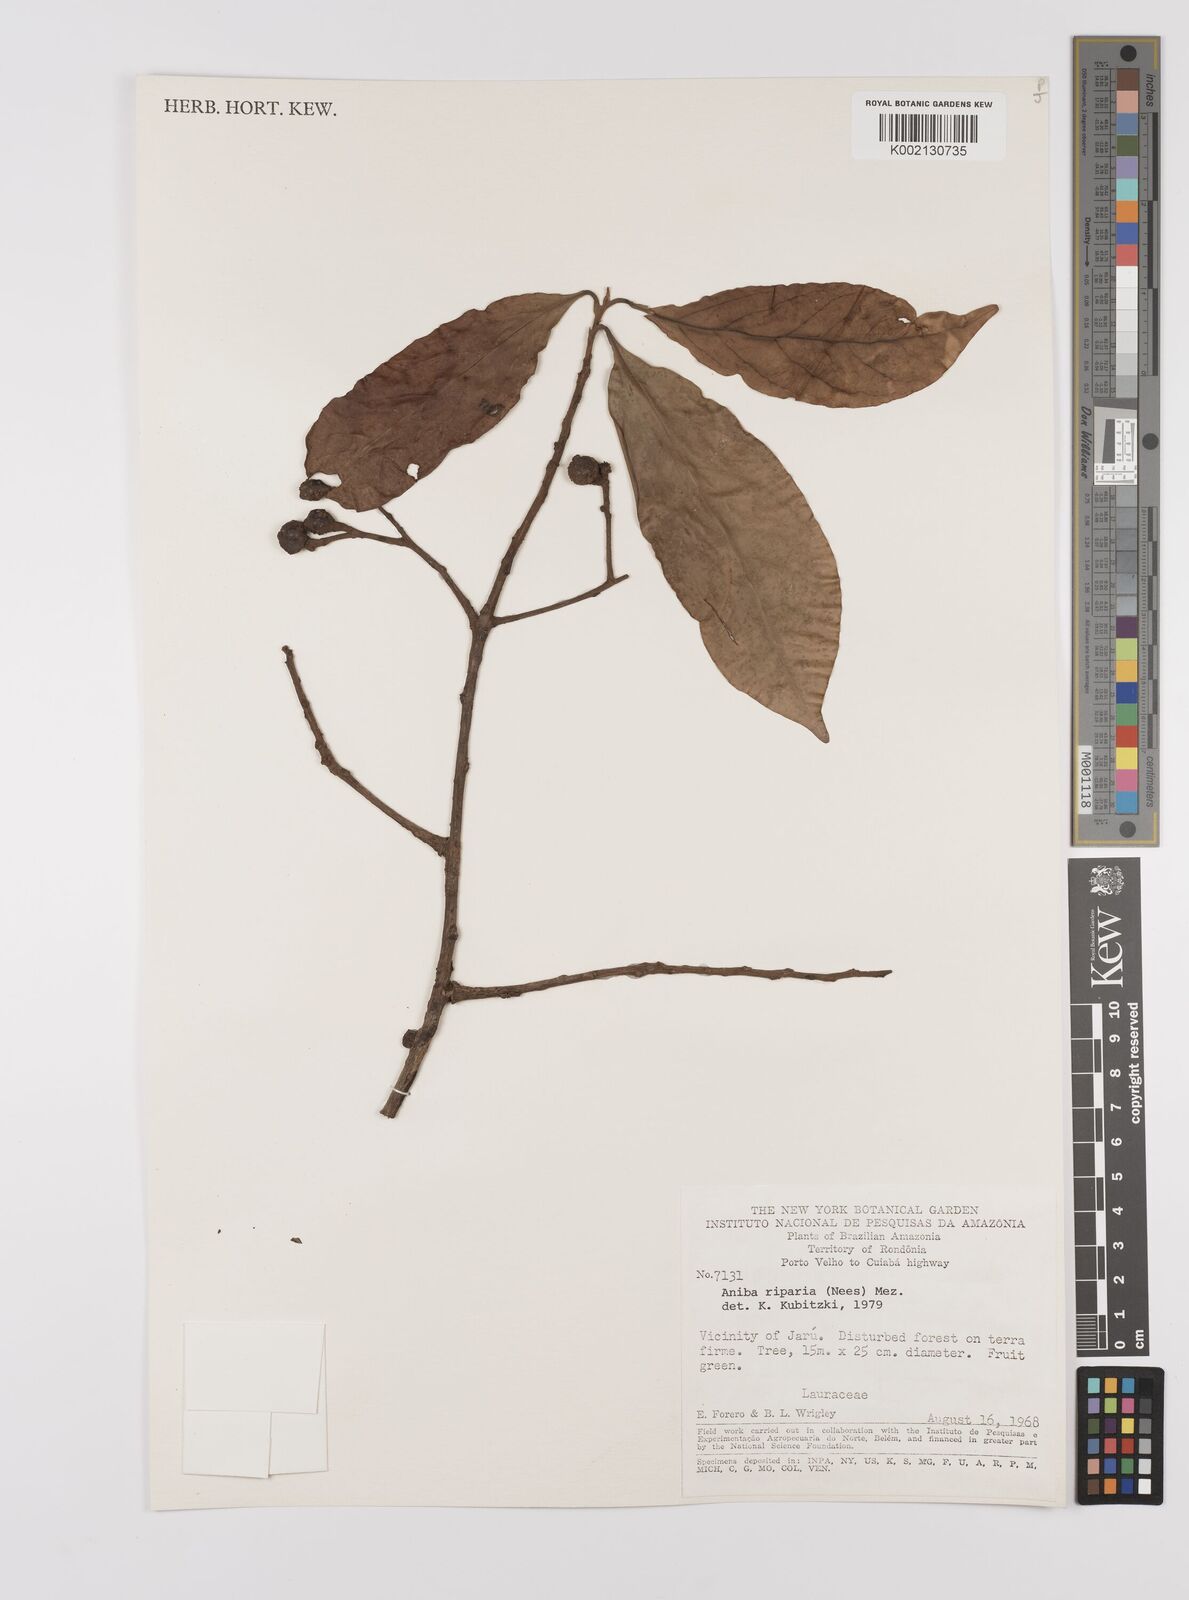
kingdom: Plantae
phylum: Tracheophyta
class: Magnoliopsida
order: Laurales
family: Lauraceae
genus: Aniba
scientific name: Aniba riparia
